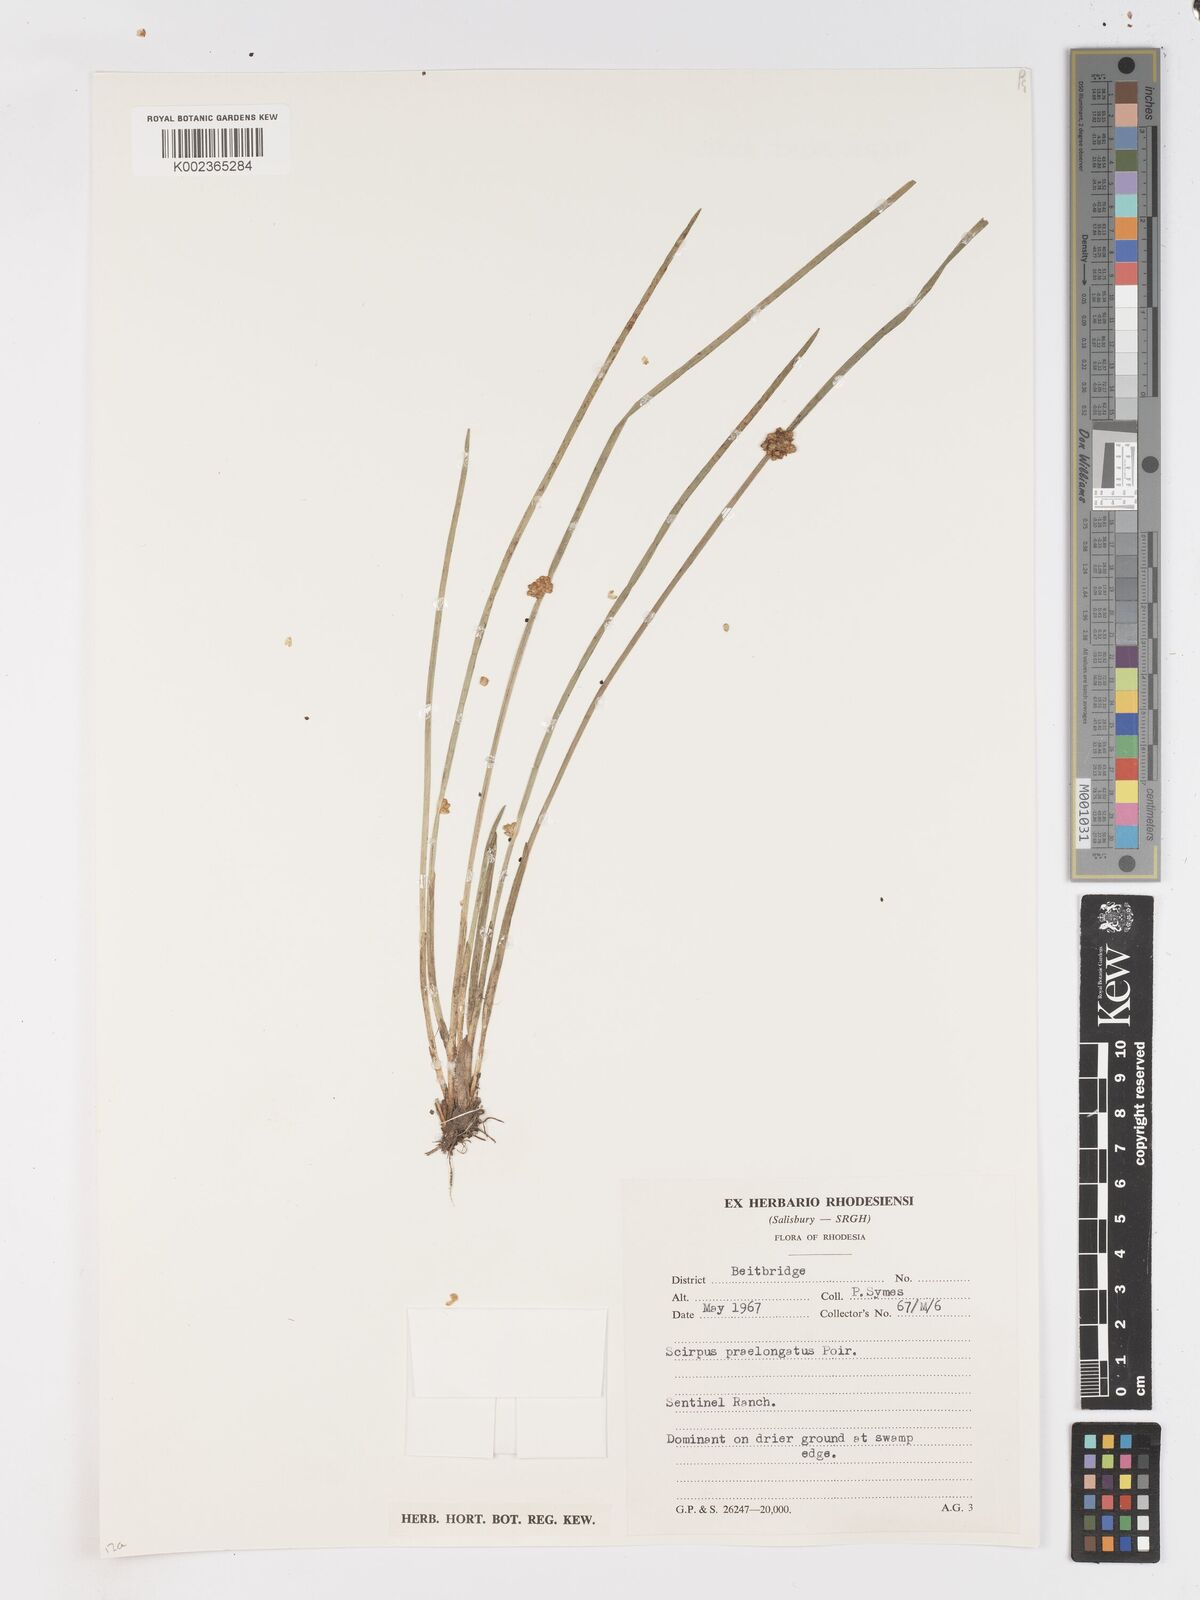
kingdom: Plantae
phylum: Tracheophyta
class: Liliopsida
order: Poales
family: Cyperaceae
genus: Schoenoplectiella
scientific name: Schoenoplectiella senegalensis
